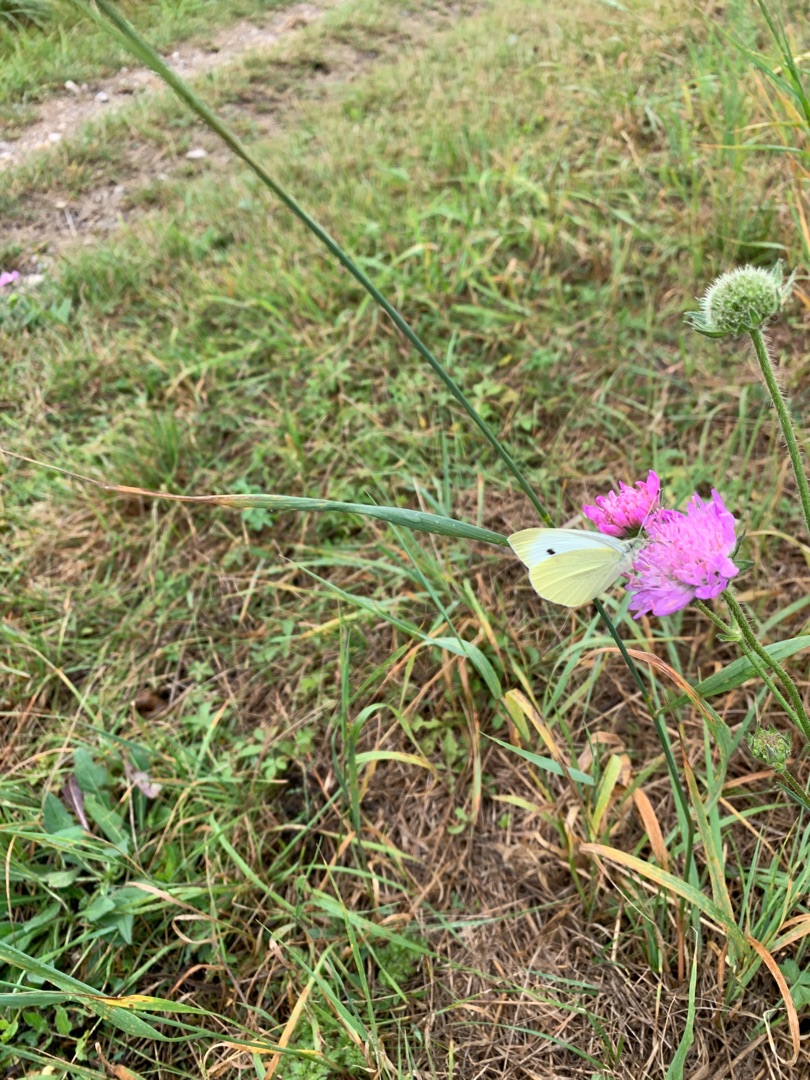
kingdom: Animalia
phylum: Arthropoda
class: Insecta
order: Lepidoptera
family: Pieridae
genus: Pieris
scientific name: Pieris brassicae
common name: Stor kålsommerfugl
